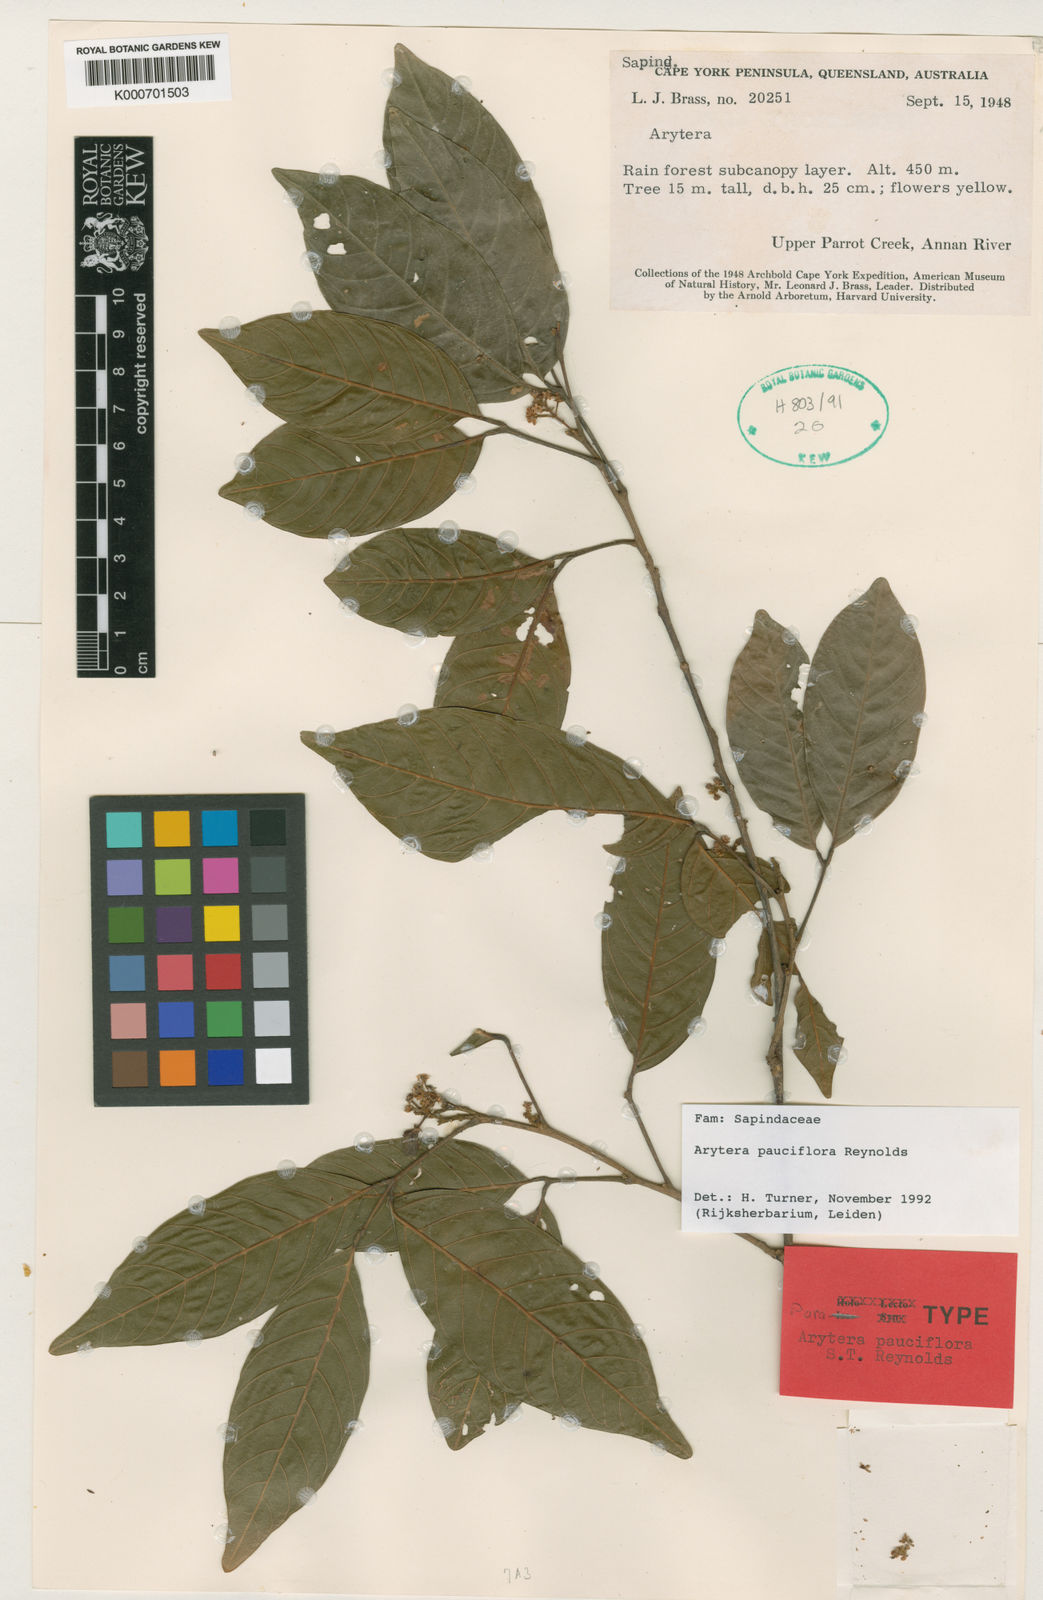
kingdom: Plantae
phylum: Tracheophyta
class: Magnoliopsida
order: Sapindales
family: Sapindaceae
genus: Arytera
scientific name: Arytera pauciflora
